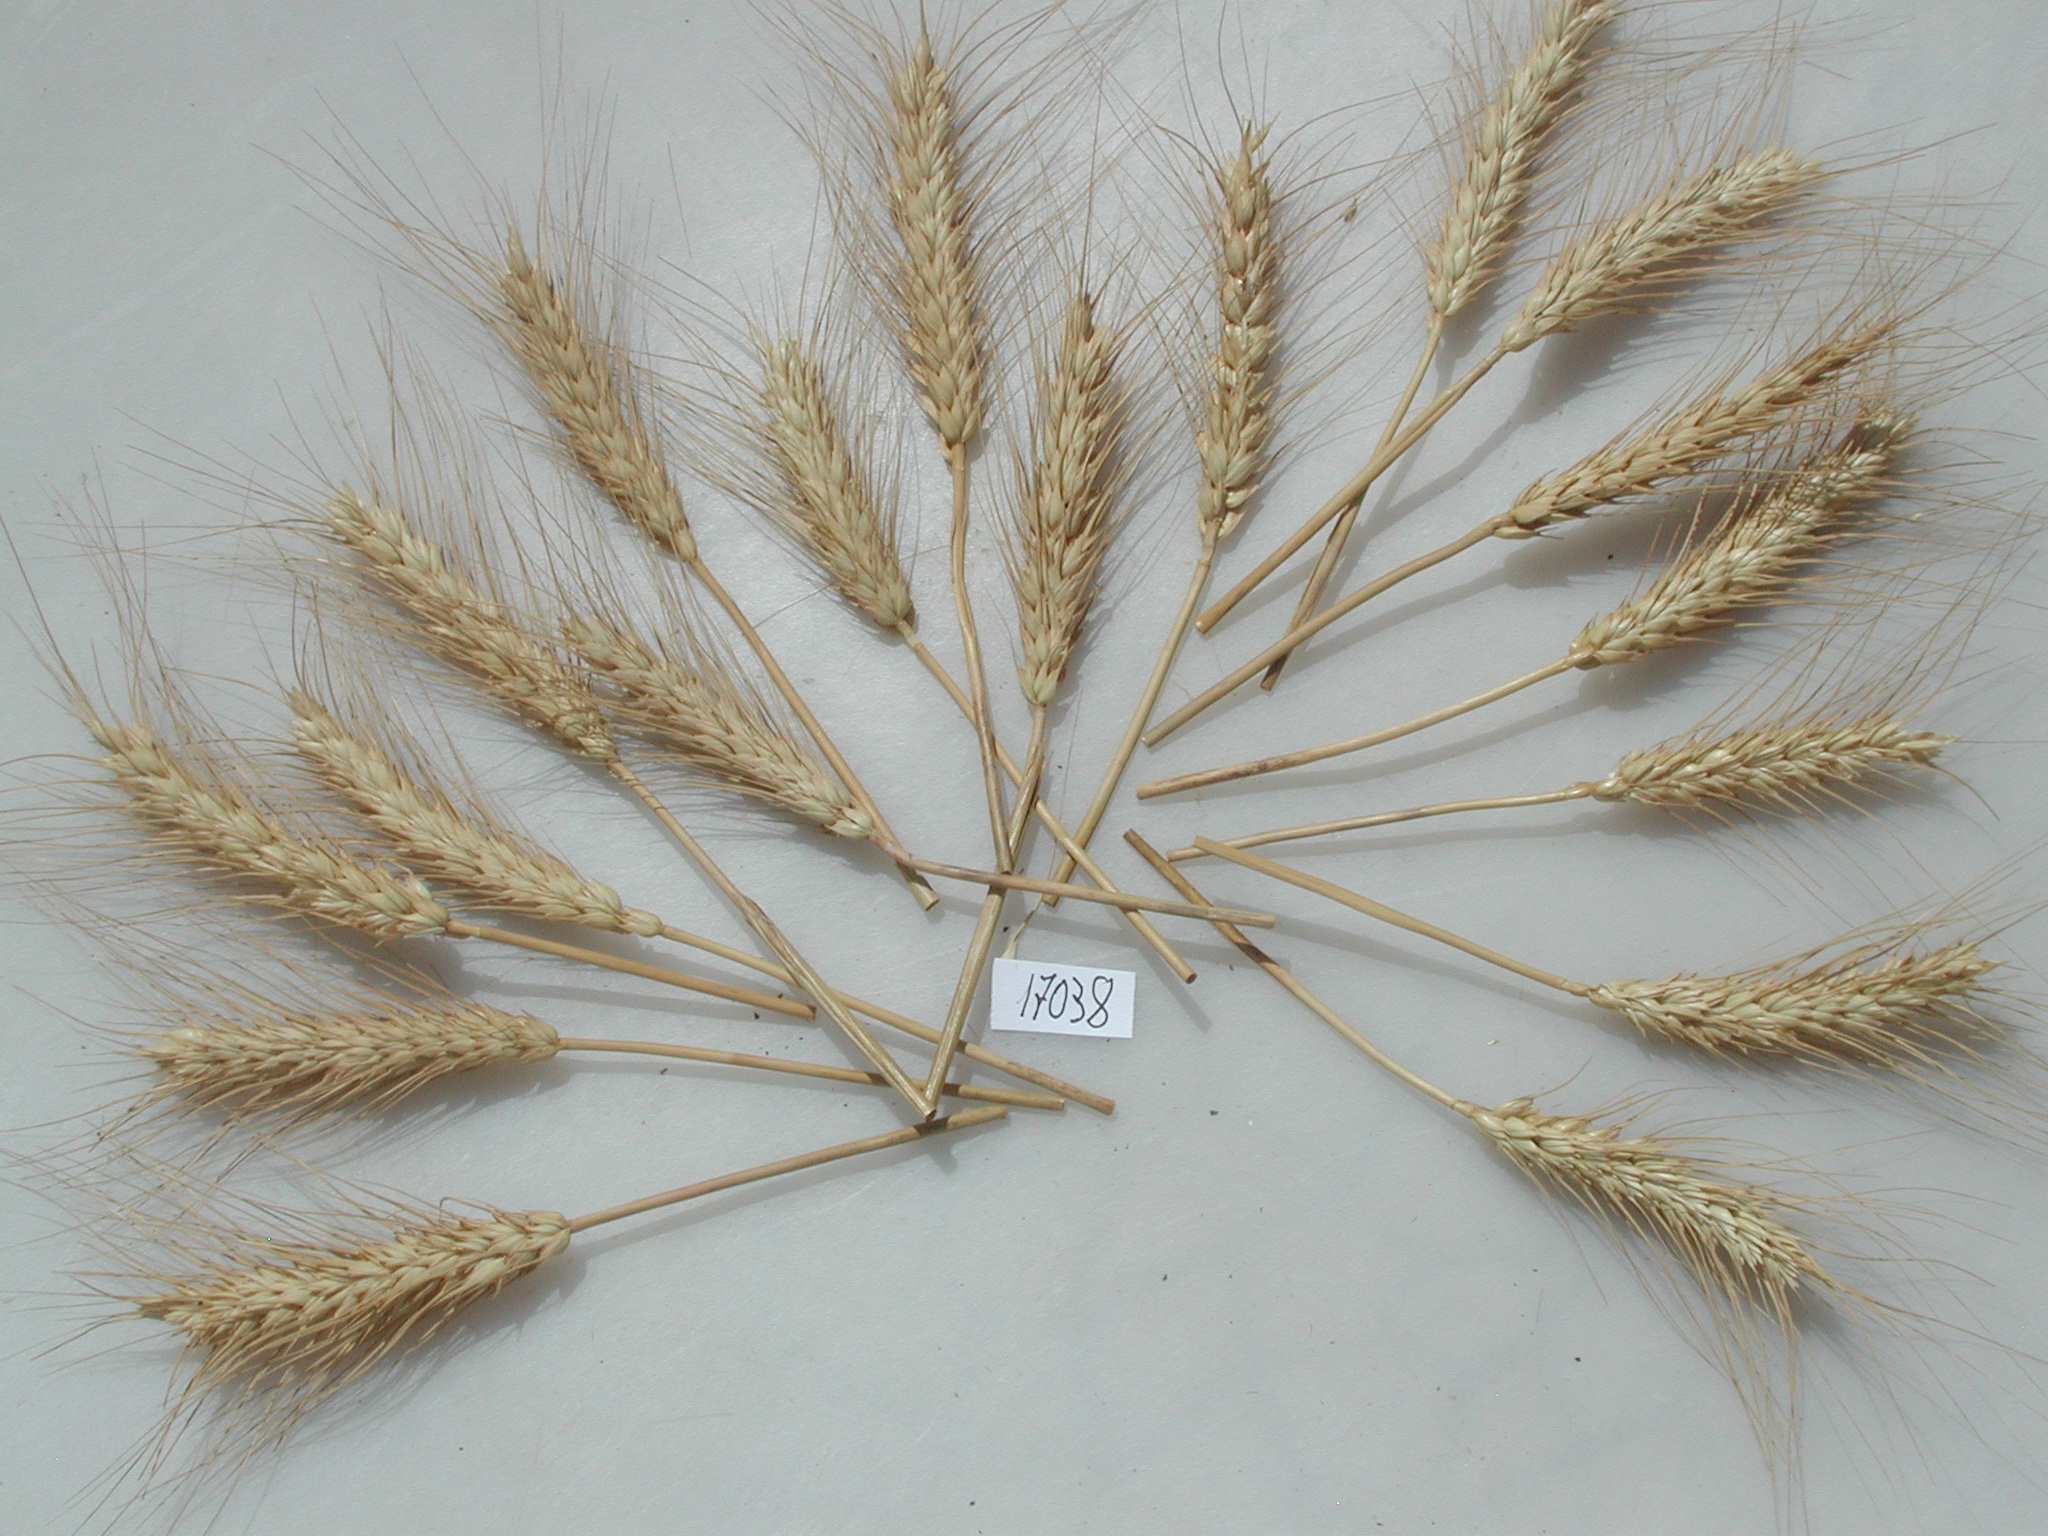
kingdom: Plantae
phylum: Tracheophyta
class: Liliopsida
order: Poales
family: Poaceae
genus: Triticum
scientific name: Triticum
